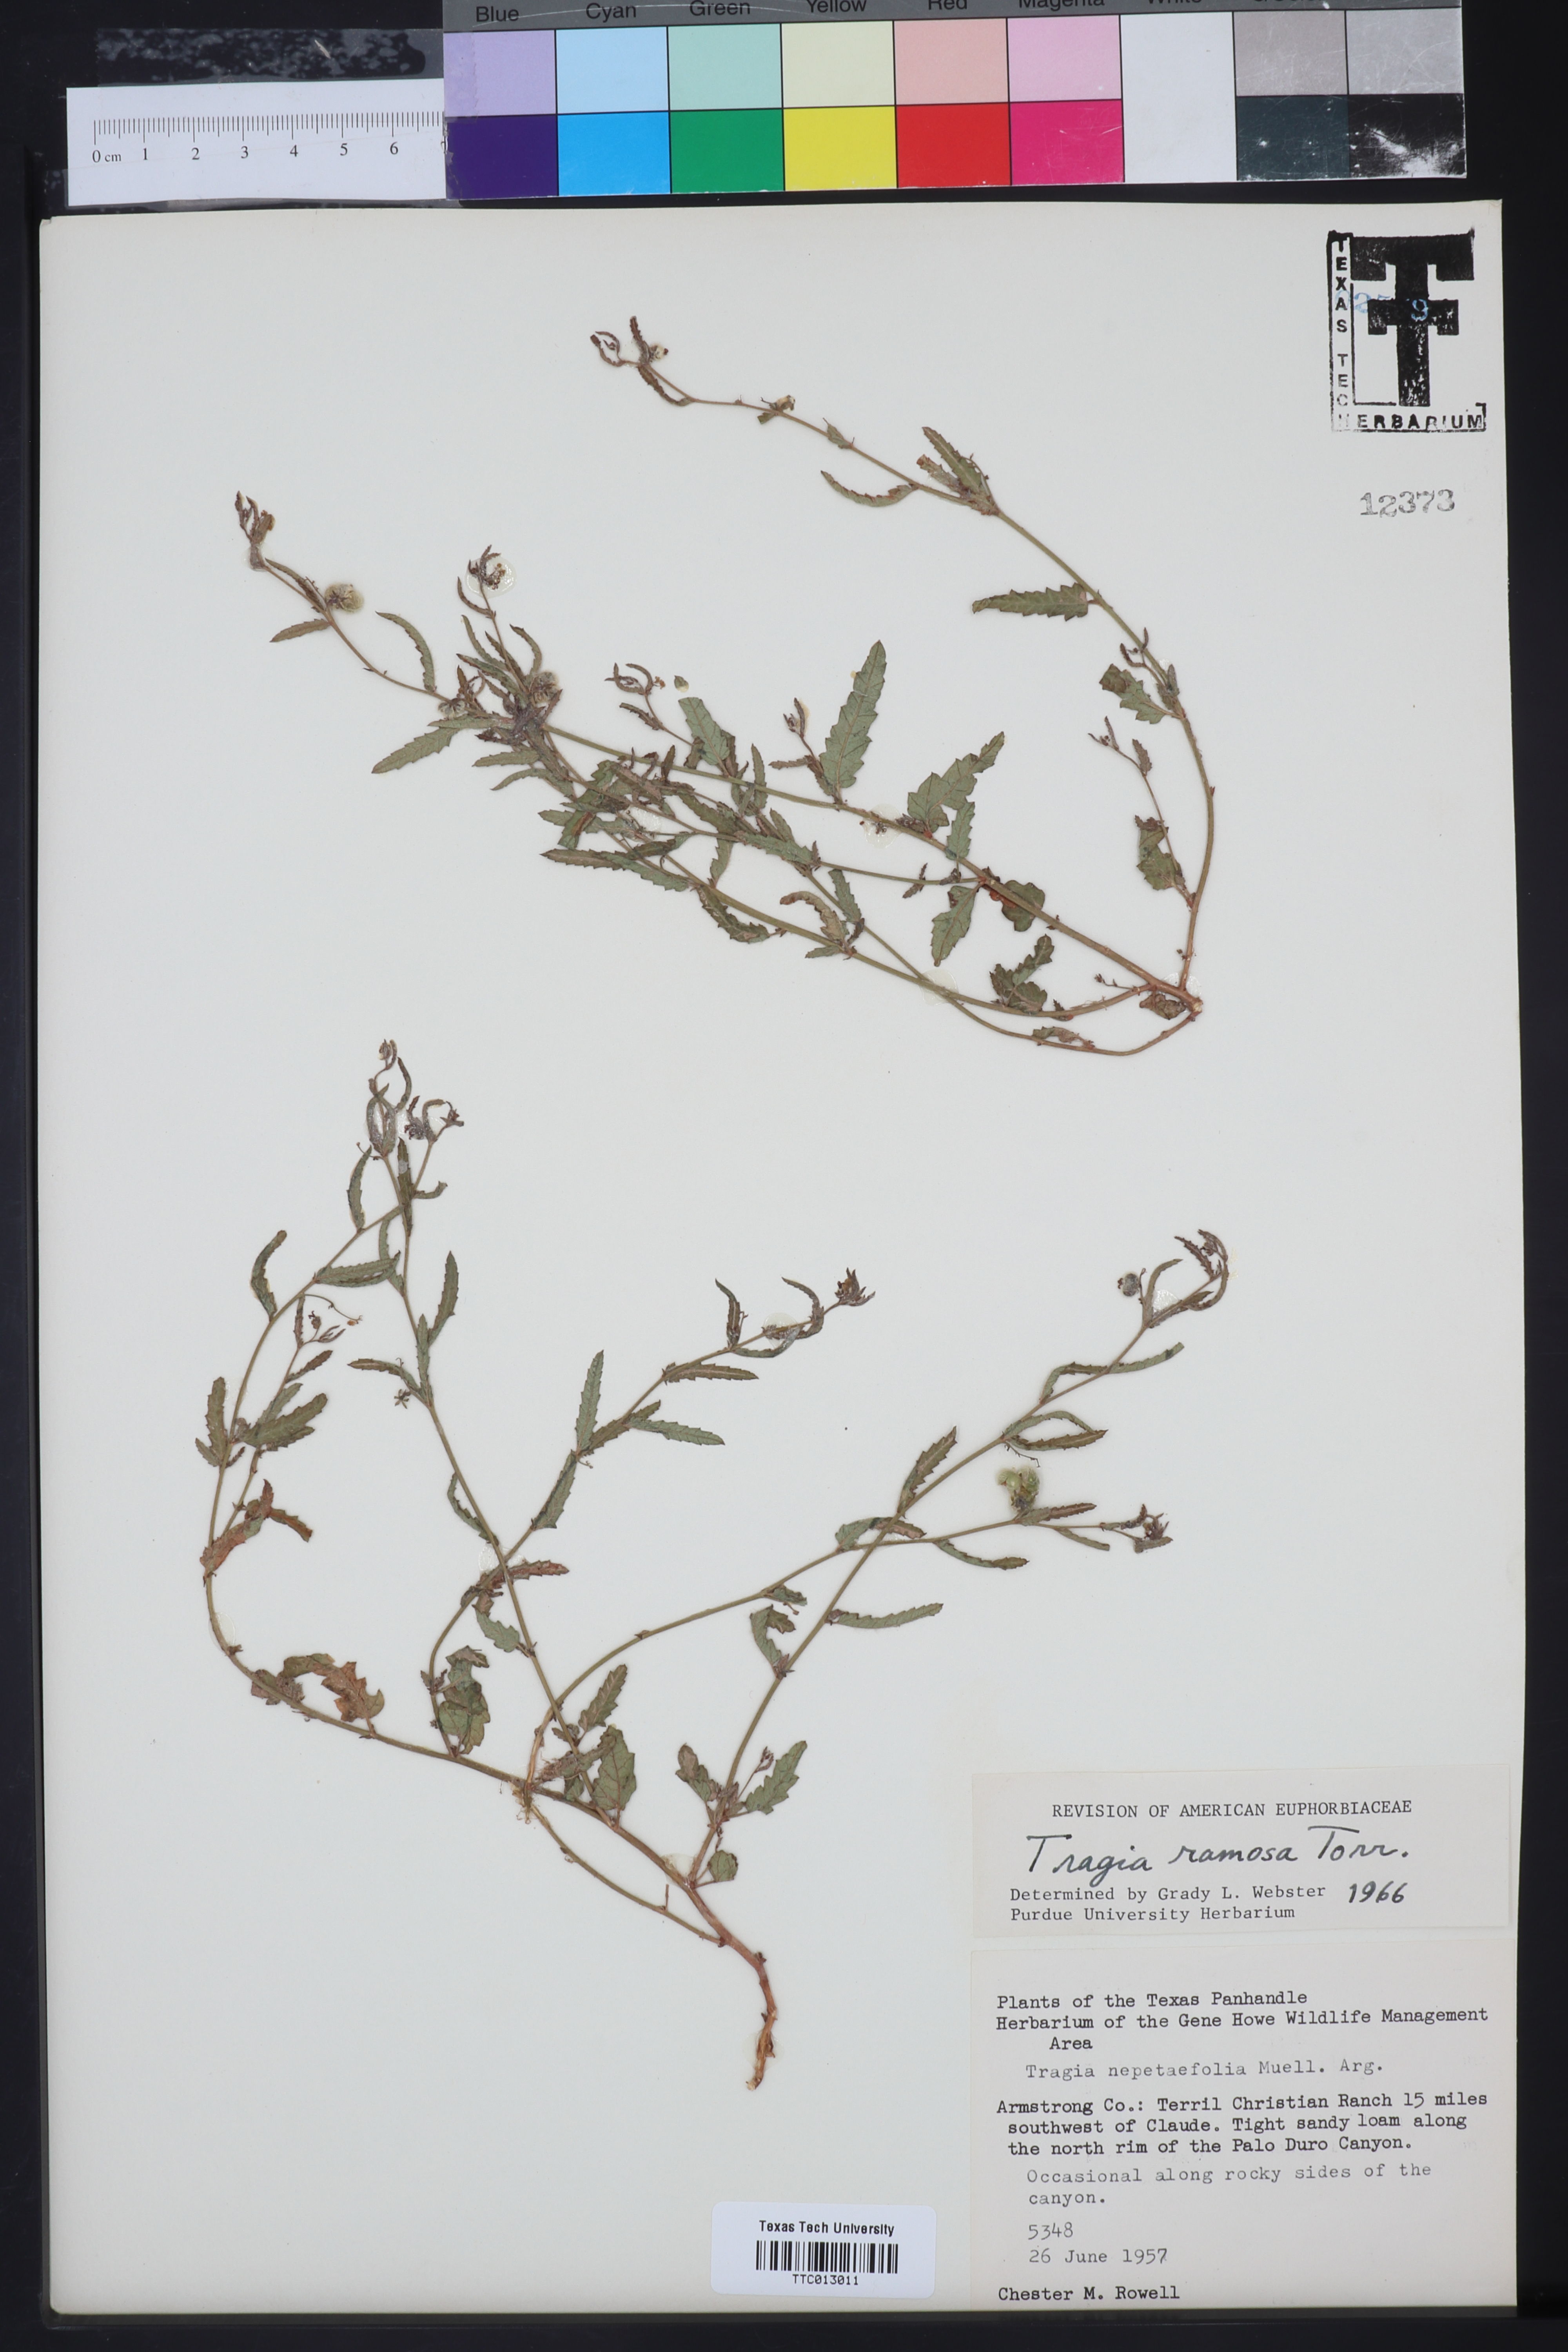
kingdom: Plantae
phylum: Tracheophyta
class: Magnoliopsida
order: Malpighiales
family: Euphorbiaceae
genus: Tragia
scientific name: Tragia ramosa
